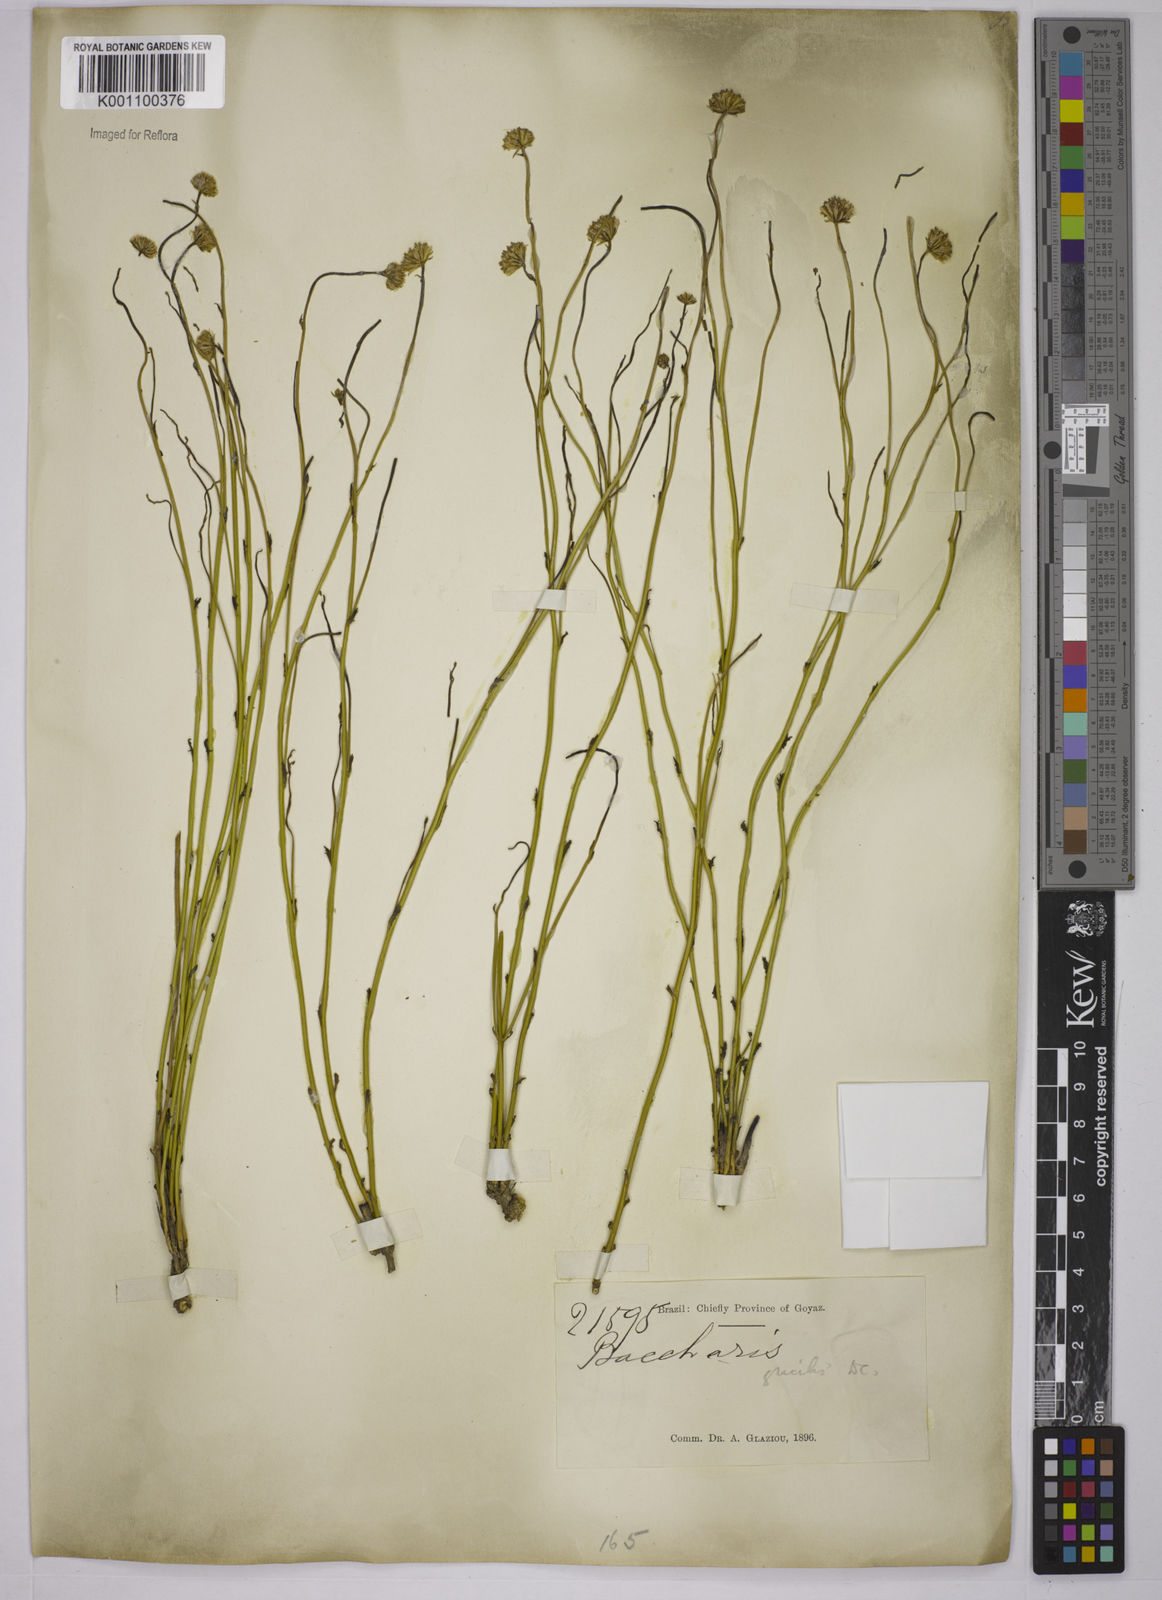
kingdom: Plantae
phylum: Tracheophyta
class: Magnoliopsida
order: Asterales
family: Asteraceae
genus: Baccharis
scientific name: Baccharis orbignyana
